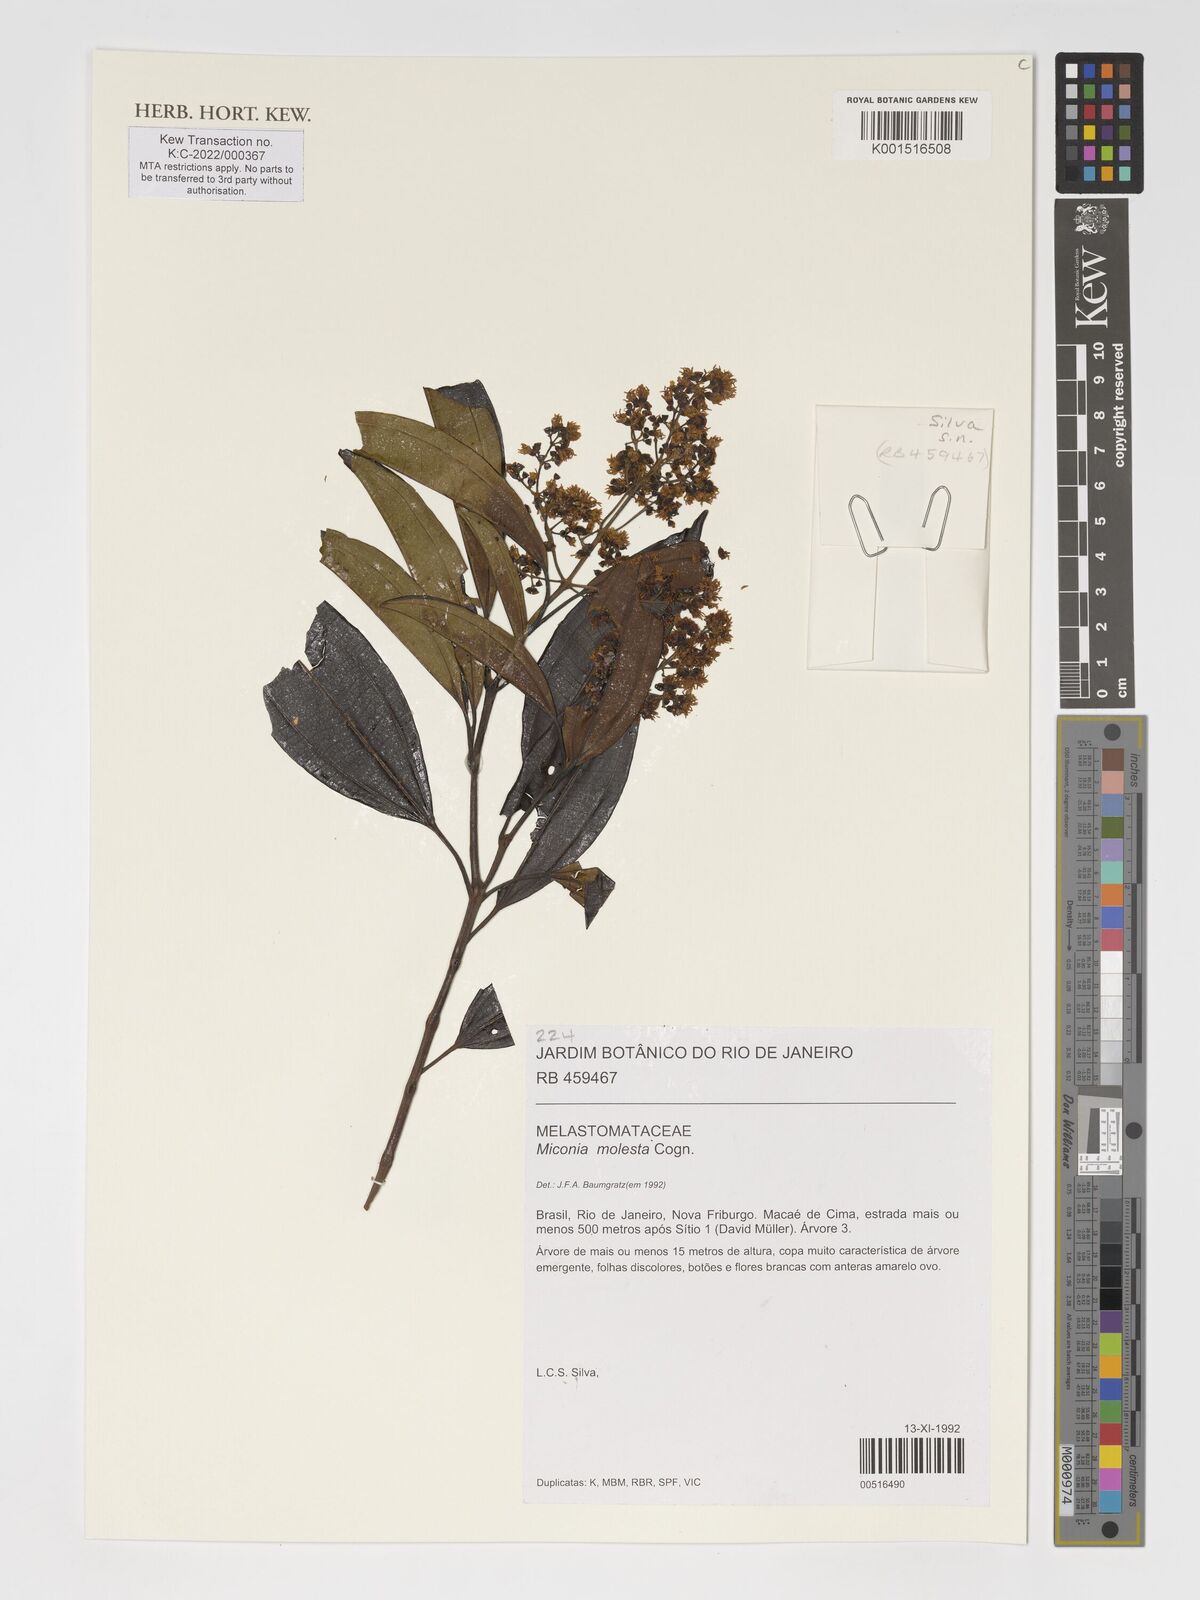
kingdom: Plantae
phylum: Tracheophyta
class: Magnoliopsida
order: Myrtales
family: Melastomataceae
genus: Miconia
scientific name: Miconia molesta
